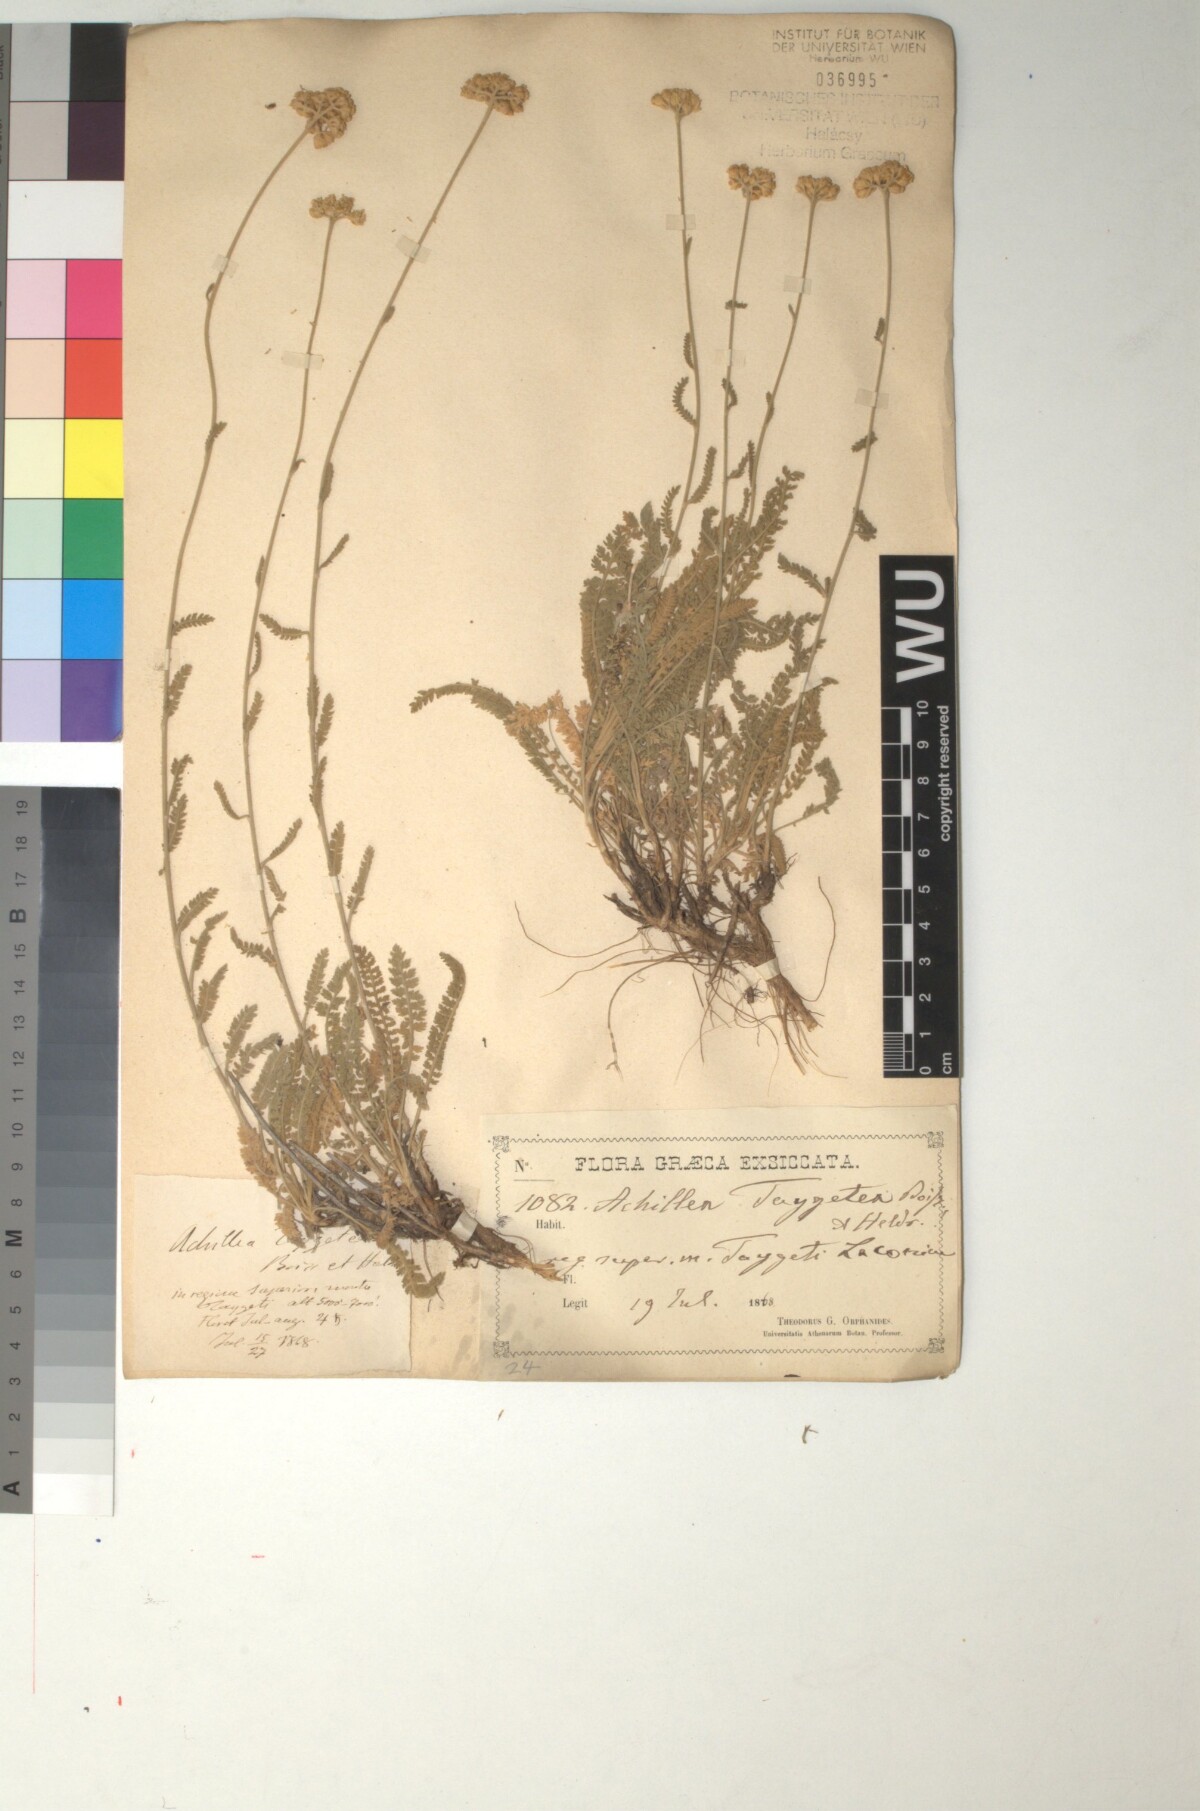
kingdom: Plantae
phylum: Tracheophyta
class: Magnoliopsida
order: Asterales
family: Asteraceae
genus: Achillea
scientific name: Achillea taygetea
